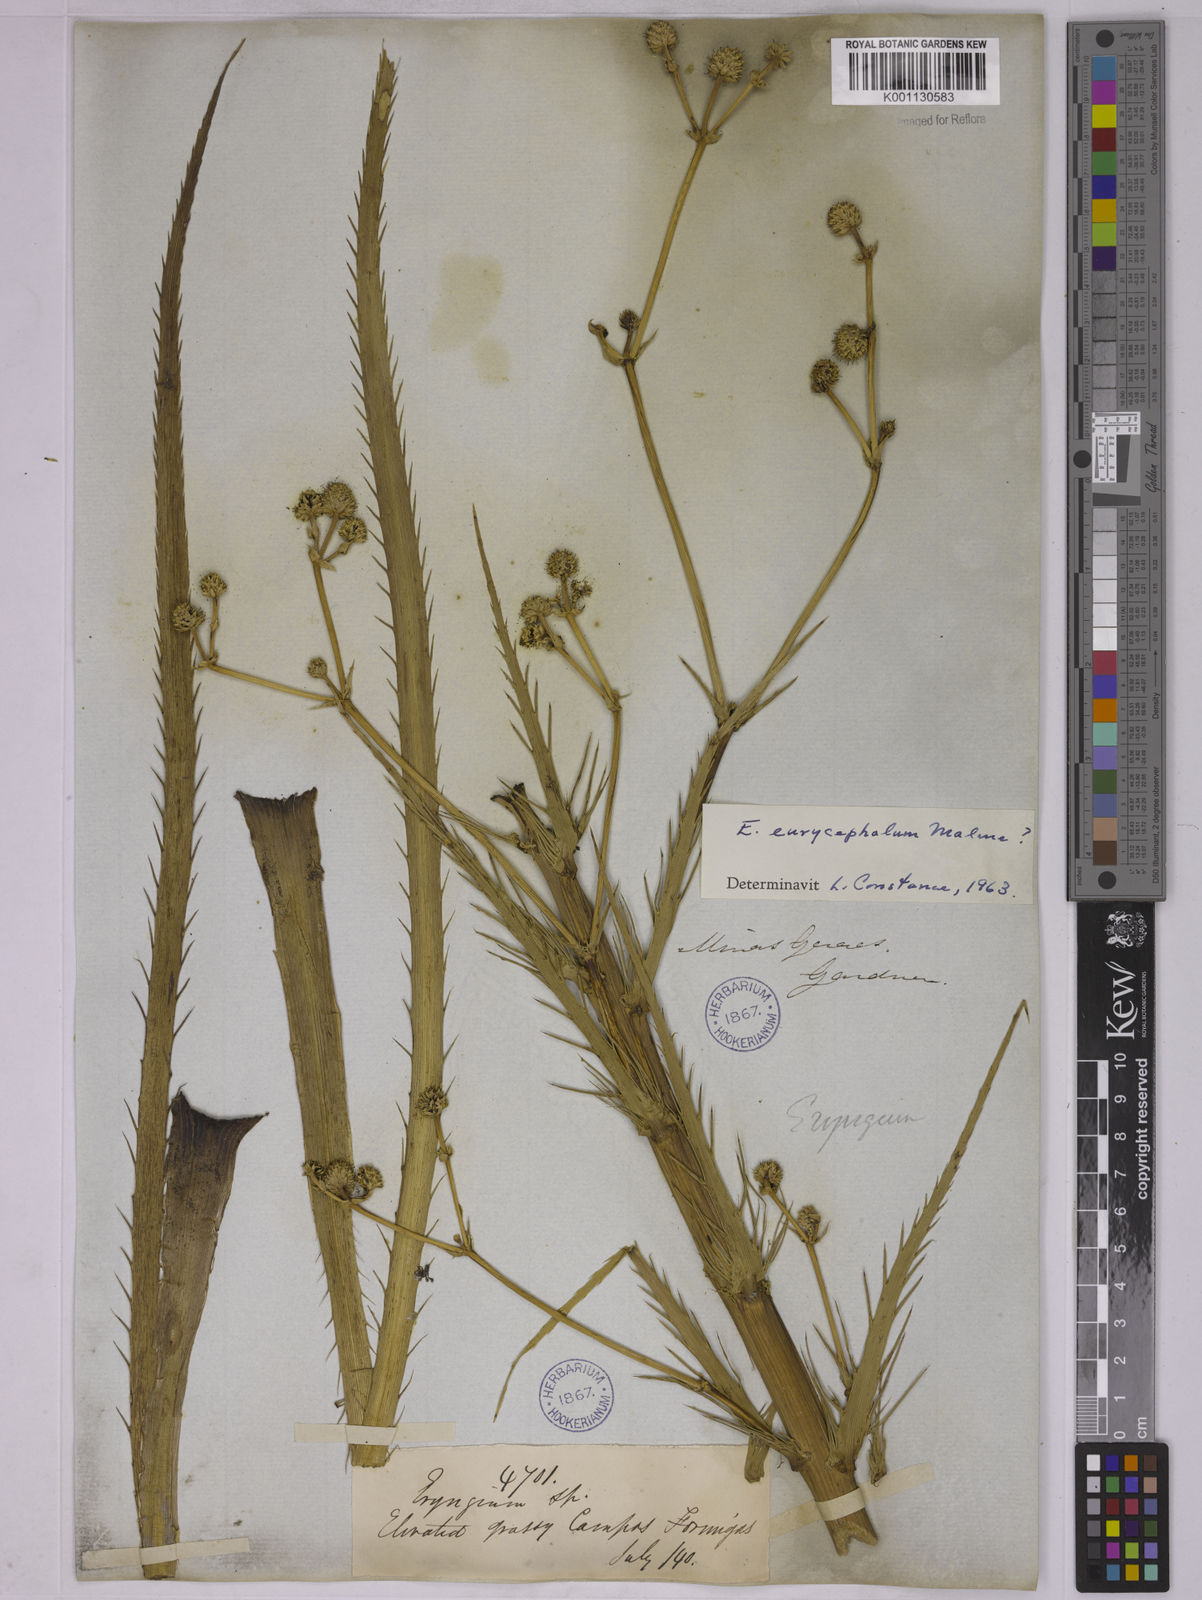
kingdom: Plantae
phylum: Tracheophyta
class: Magnoliopsida
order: Apiales
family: Apiaceae
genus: Eryngium
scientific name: Eryngium eurycephalum
